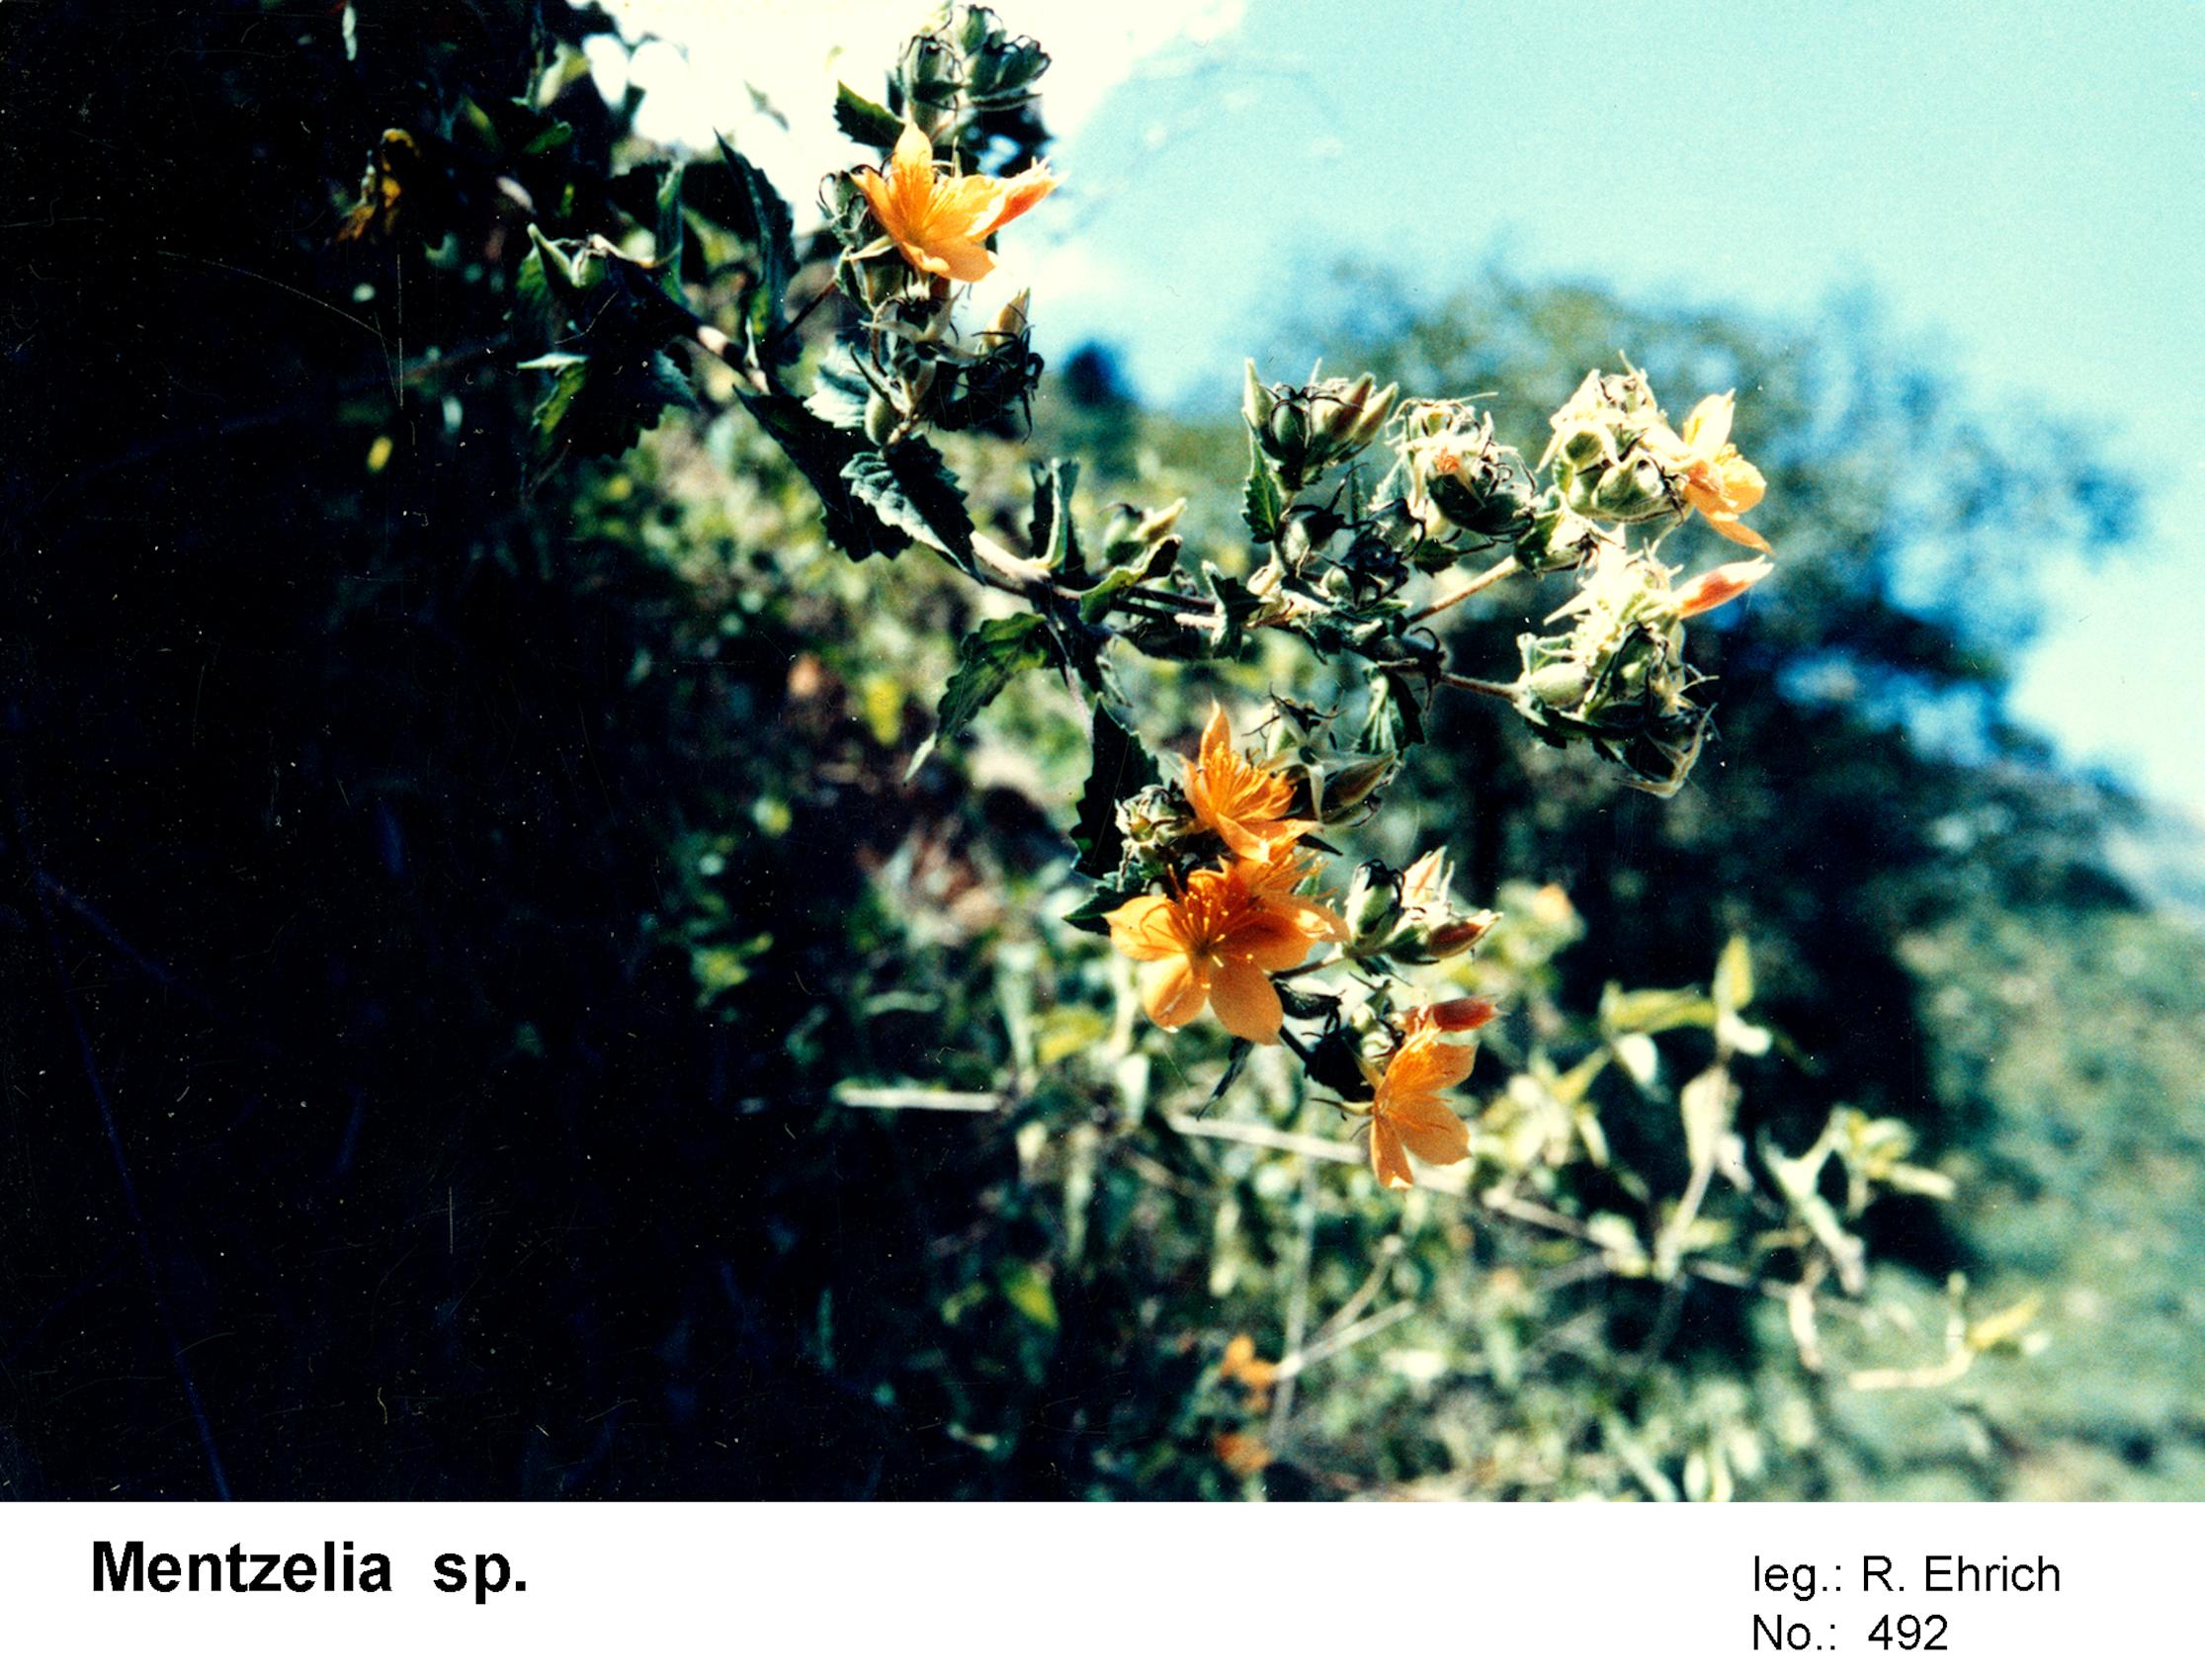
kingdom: Plantae
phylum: Tracheophyta
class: Magnoliopsida
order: Cornales
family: Loasaceae
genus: Mentzelia
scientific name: Mentzelia
